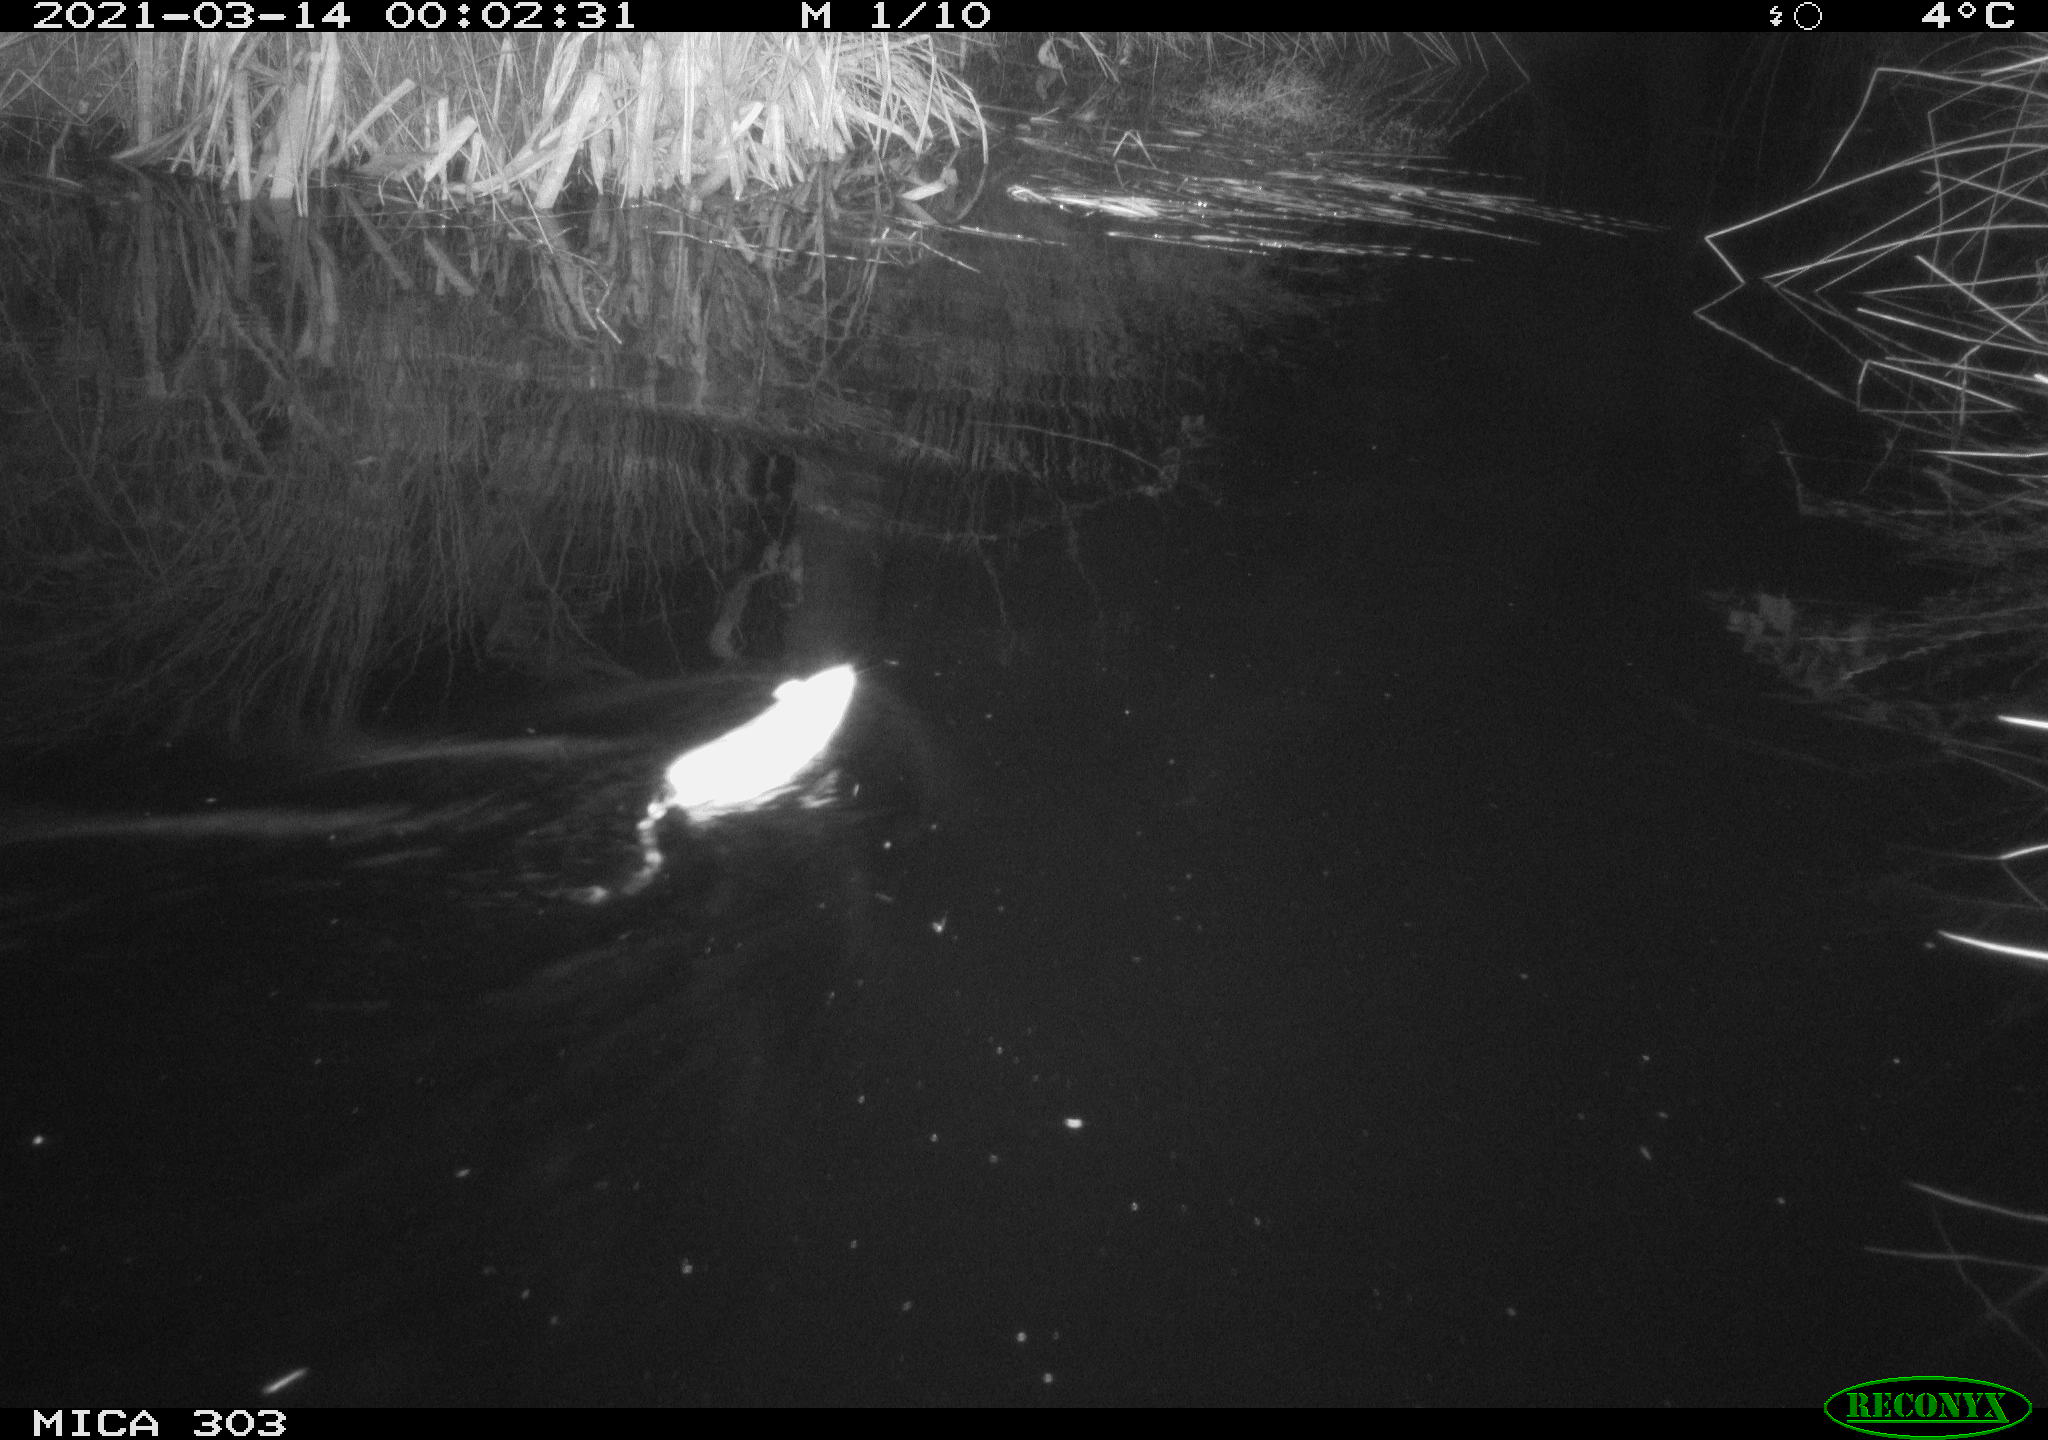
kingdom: Animalia
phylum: Chordata
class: Mammalia
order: Rodentia
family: Muridae
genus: Rattus
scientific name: Rattus norvegicus
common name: Brown rat
